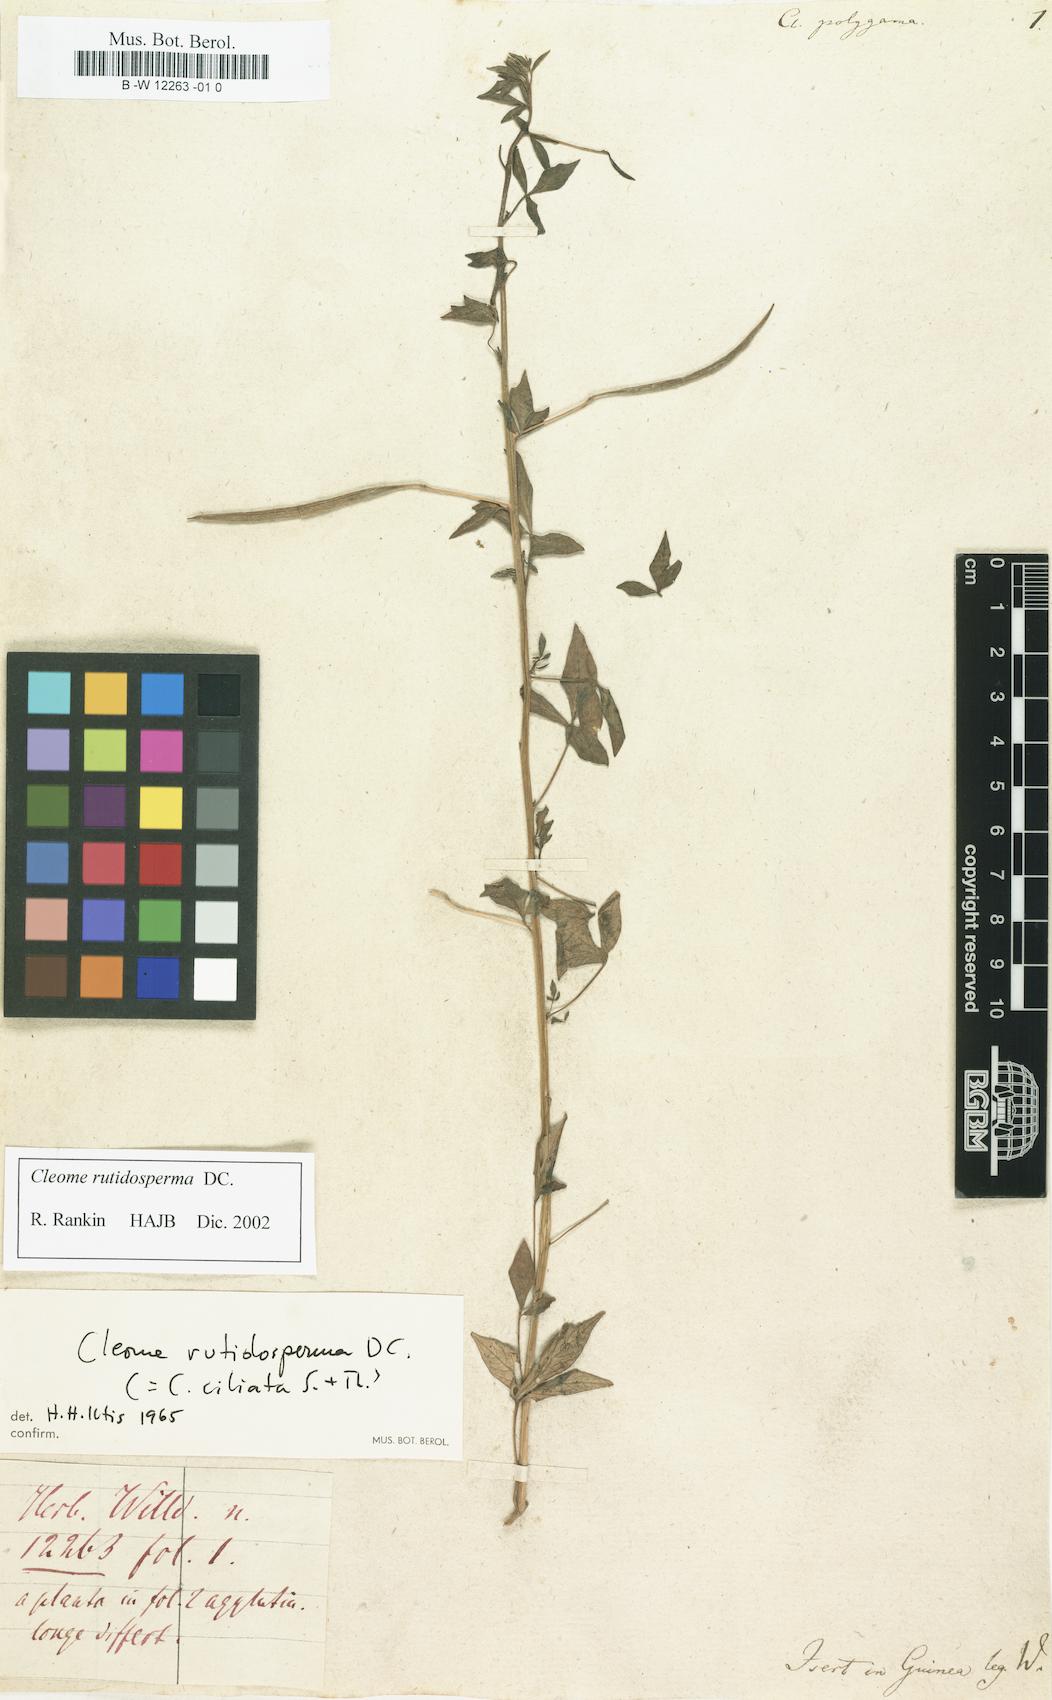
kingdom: Plantae
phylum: Tracheophyta
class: Magnoliopsida
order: Brassicales
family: Cleomaceae
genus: Cleoserrata
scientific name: Cleoserrata serrata
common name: Toothed spiderflower
